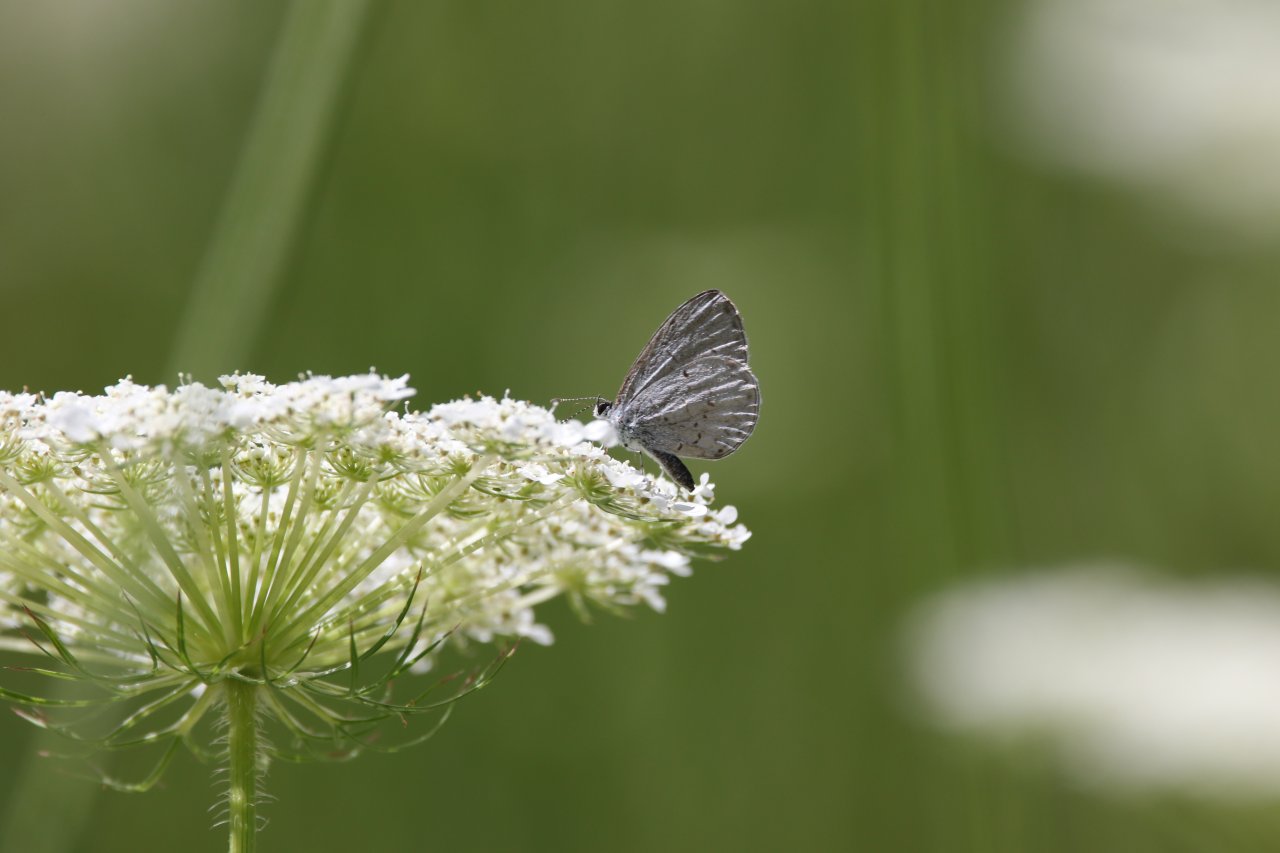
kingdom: Animalia
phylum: Arthropoda
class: Insecta
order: Lepidoptera
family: Lycaenidae
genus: Celastrina
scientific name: Celastrina
